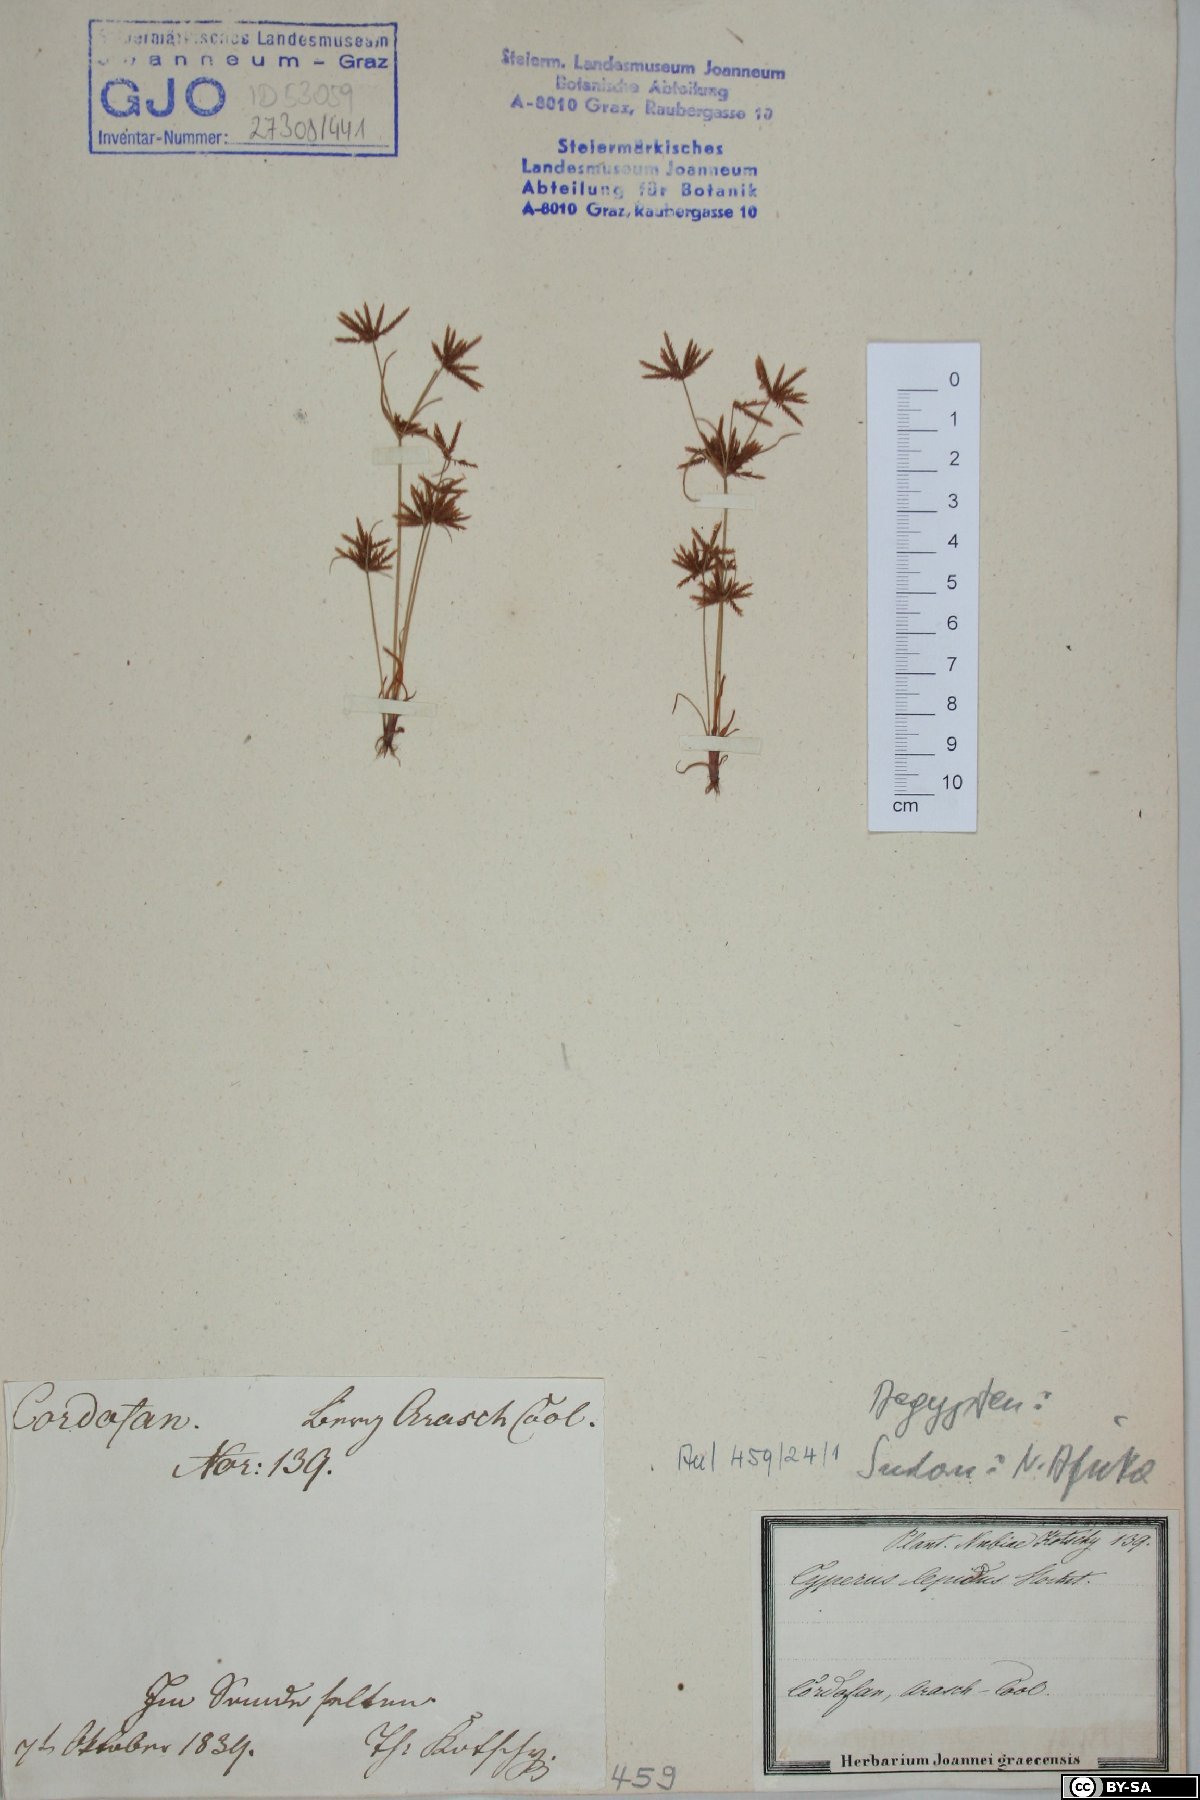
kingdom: Plantae
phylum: Tracheophyta
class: Liliopsida
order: Poales
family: Cyperaceae
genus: Cyperus
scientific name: Cyperus amabilis
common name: Foothill flat sedge
